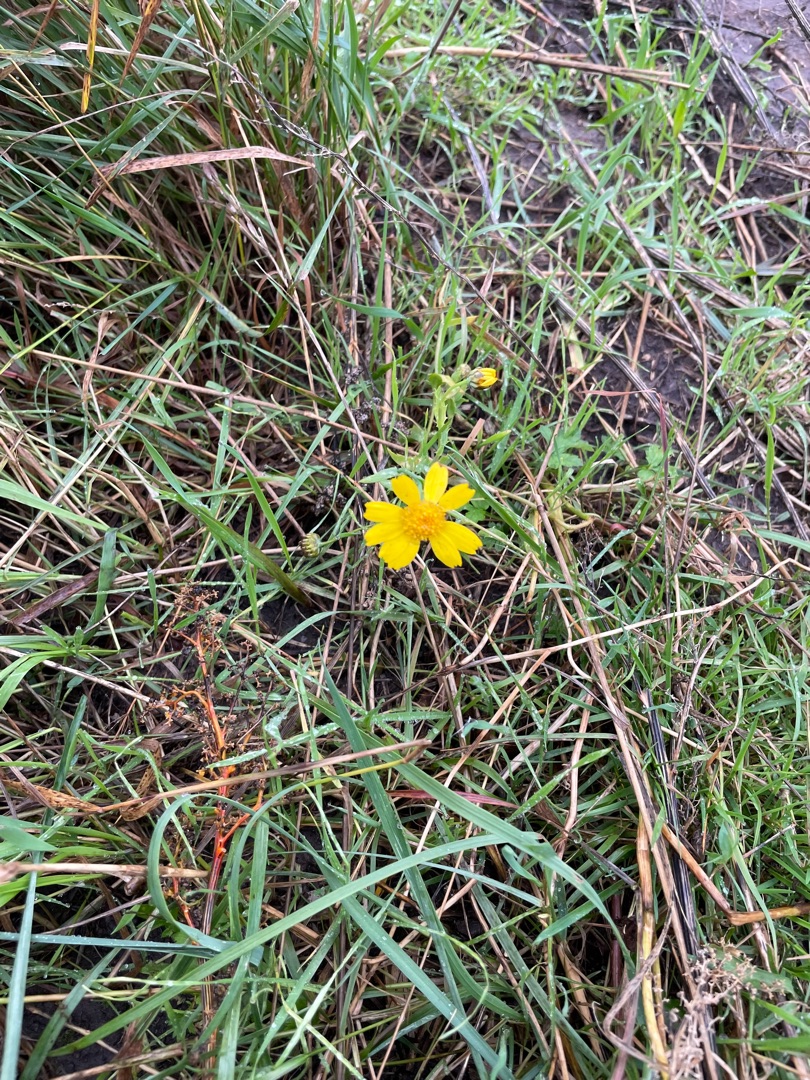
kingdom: Plantae
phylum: Tracheophyta
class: Magnoliopsida
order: Asterales
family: Asteraceae
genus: Glebionis
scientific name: Glebionis segetum
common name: Gul okseøje
